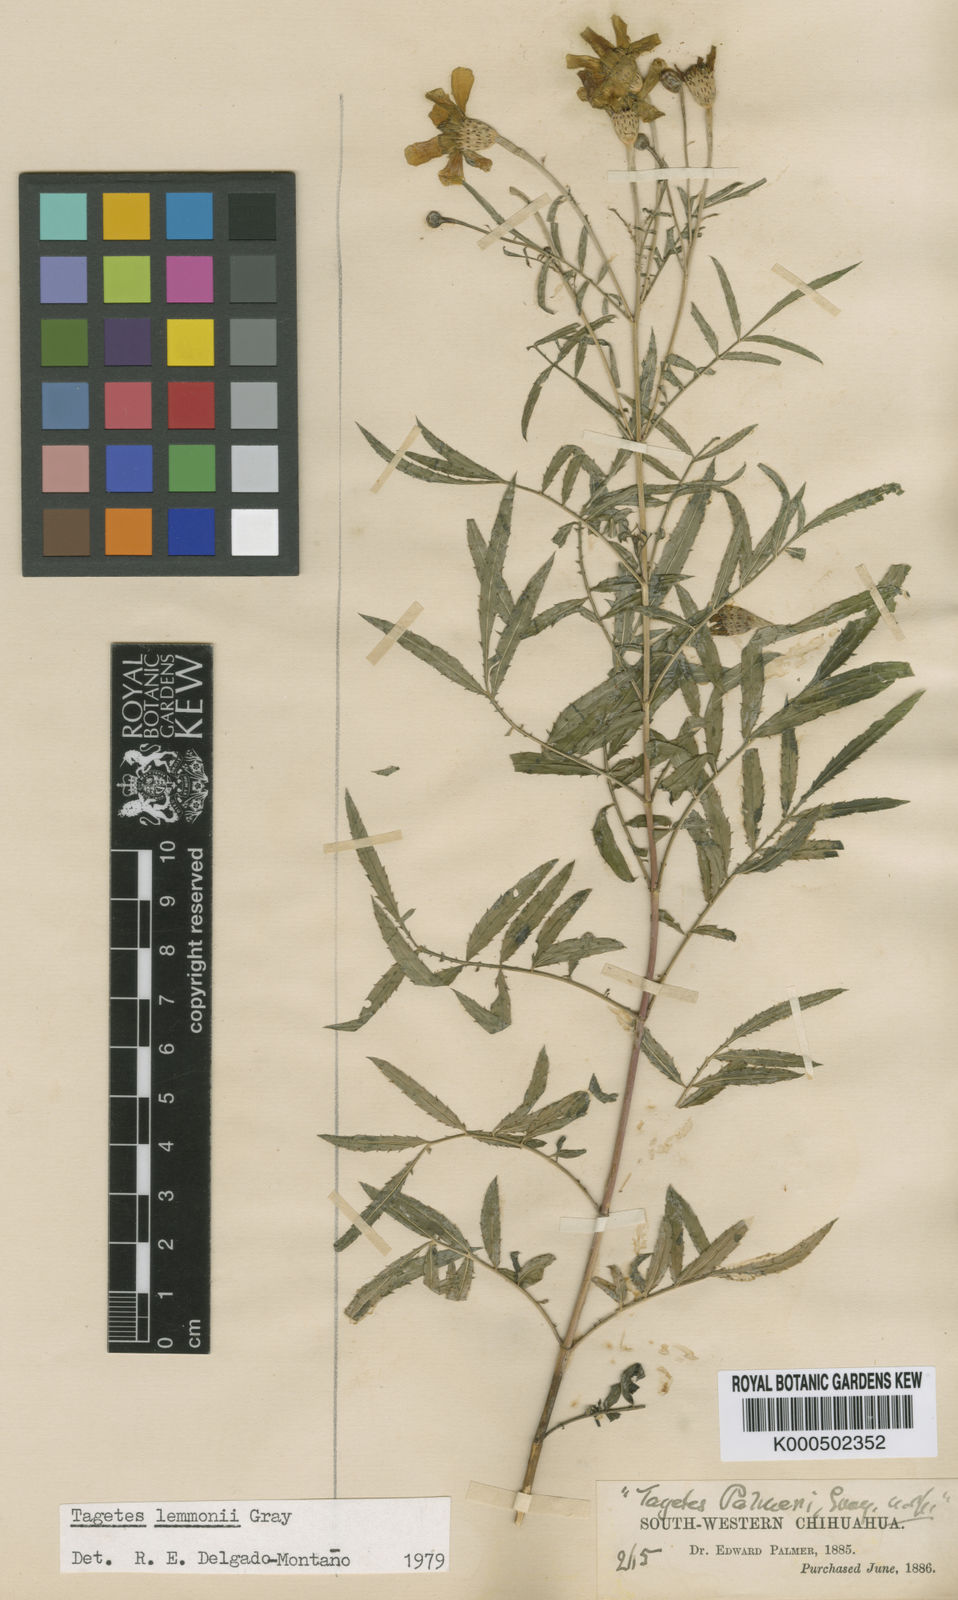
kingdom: Plantae
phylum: Tracheophyta
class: Magnoliopsida
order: Asterales
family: Asteraceae
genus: Tagetes
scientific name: Tagetes palmeri
